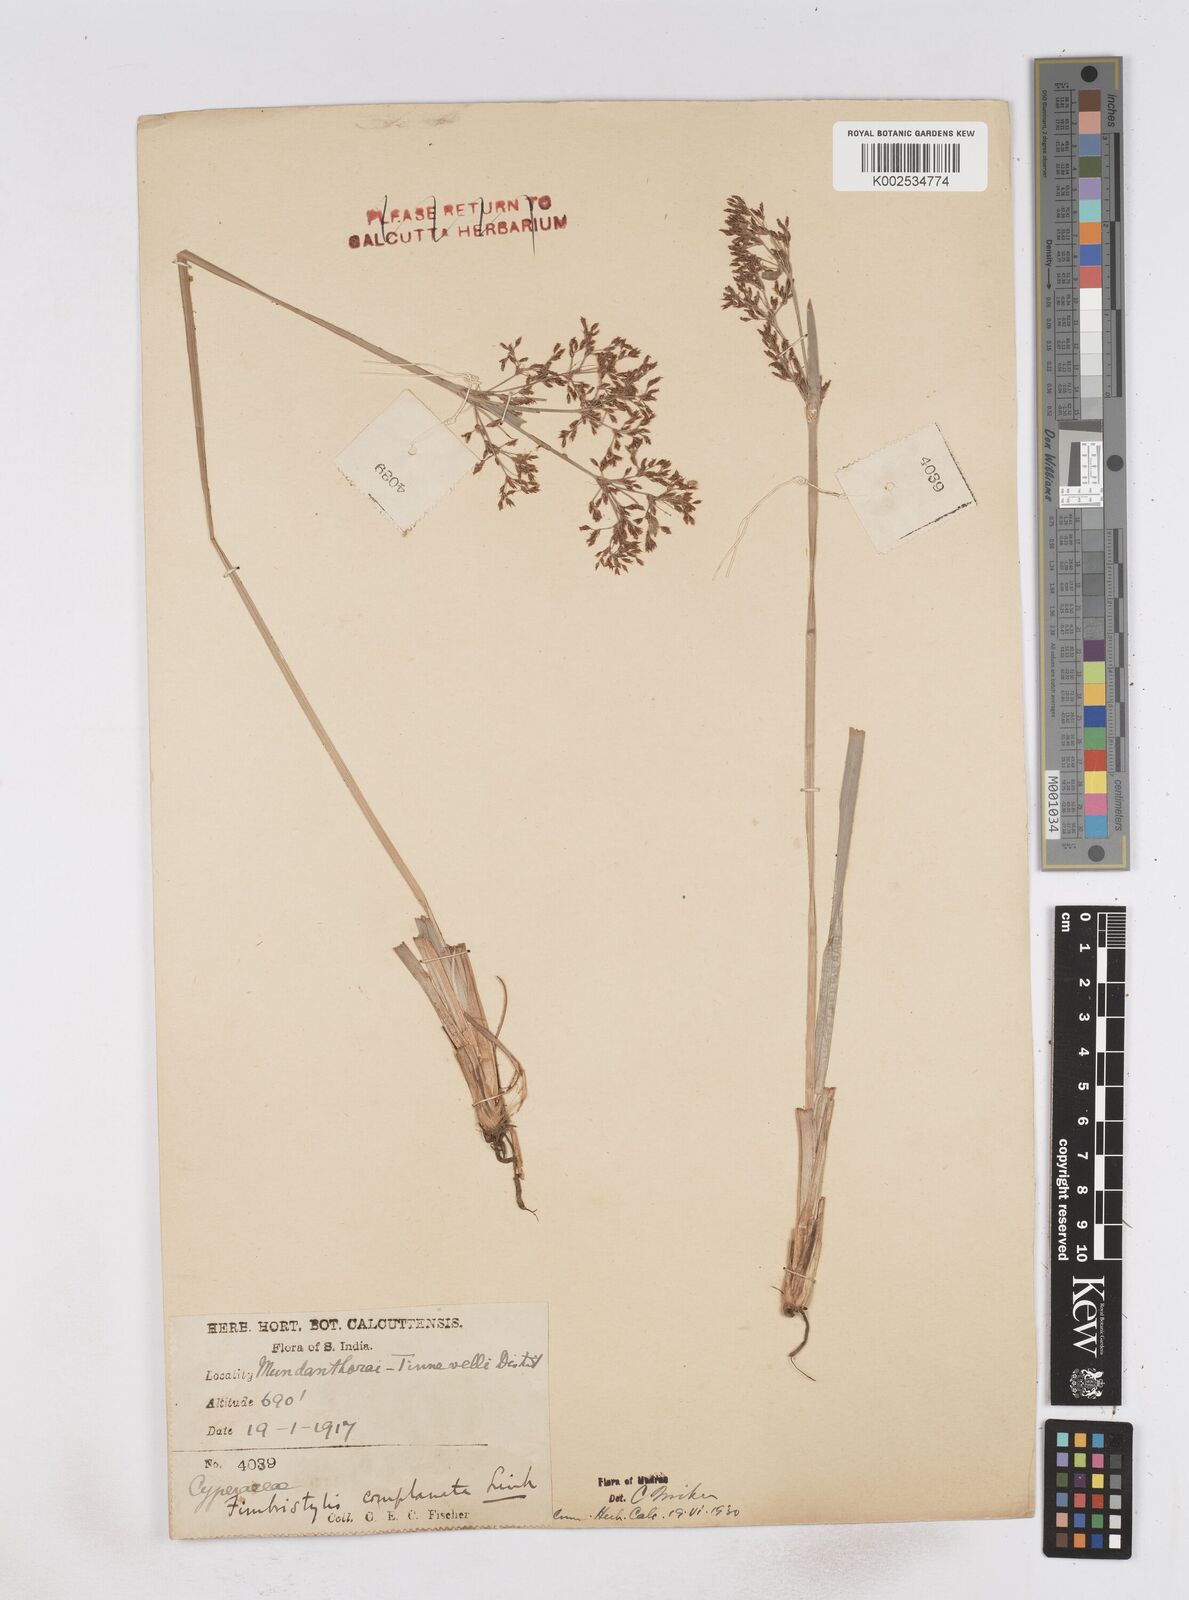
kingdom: Plantae
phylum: Tracheophyta
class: Liliopsida
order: Poales
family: Cyperaceae
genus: Fimbristylis
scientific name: Fimbristylis complanata
